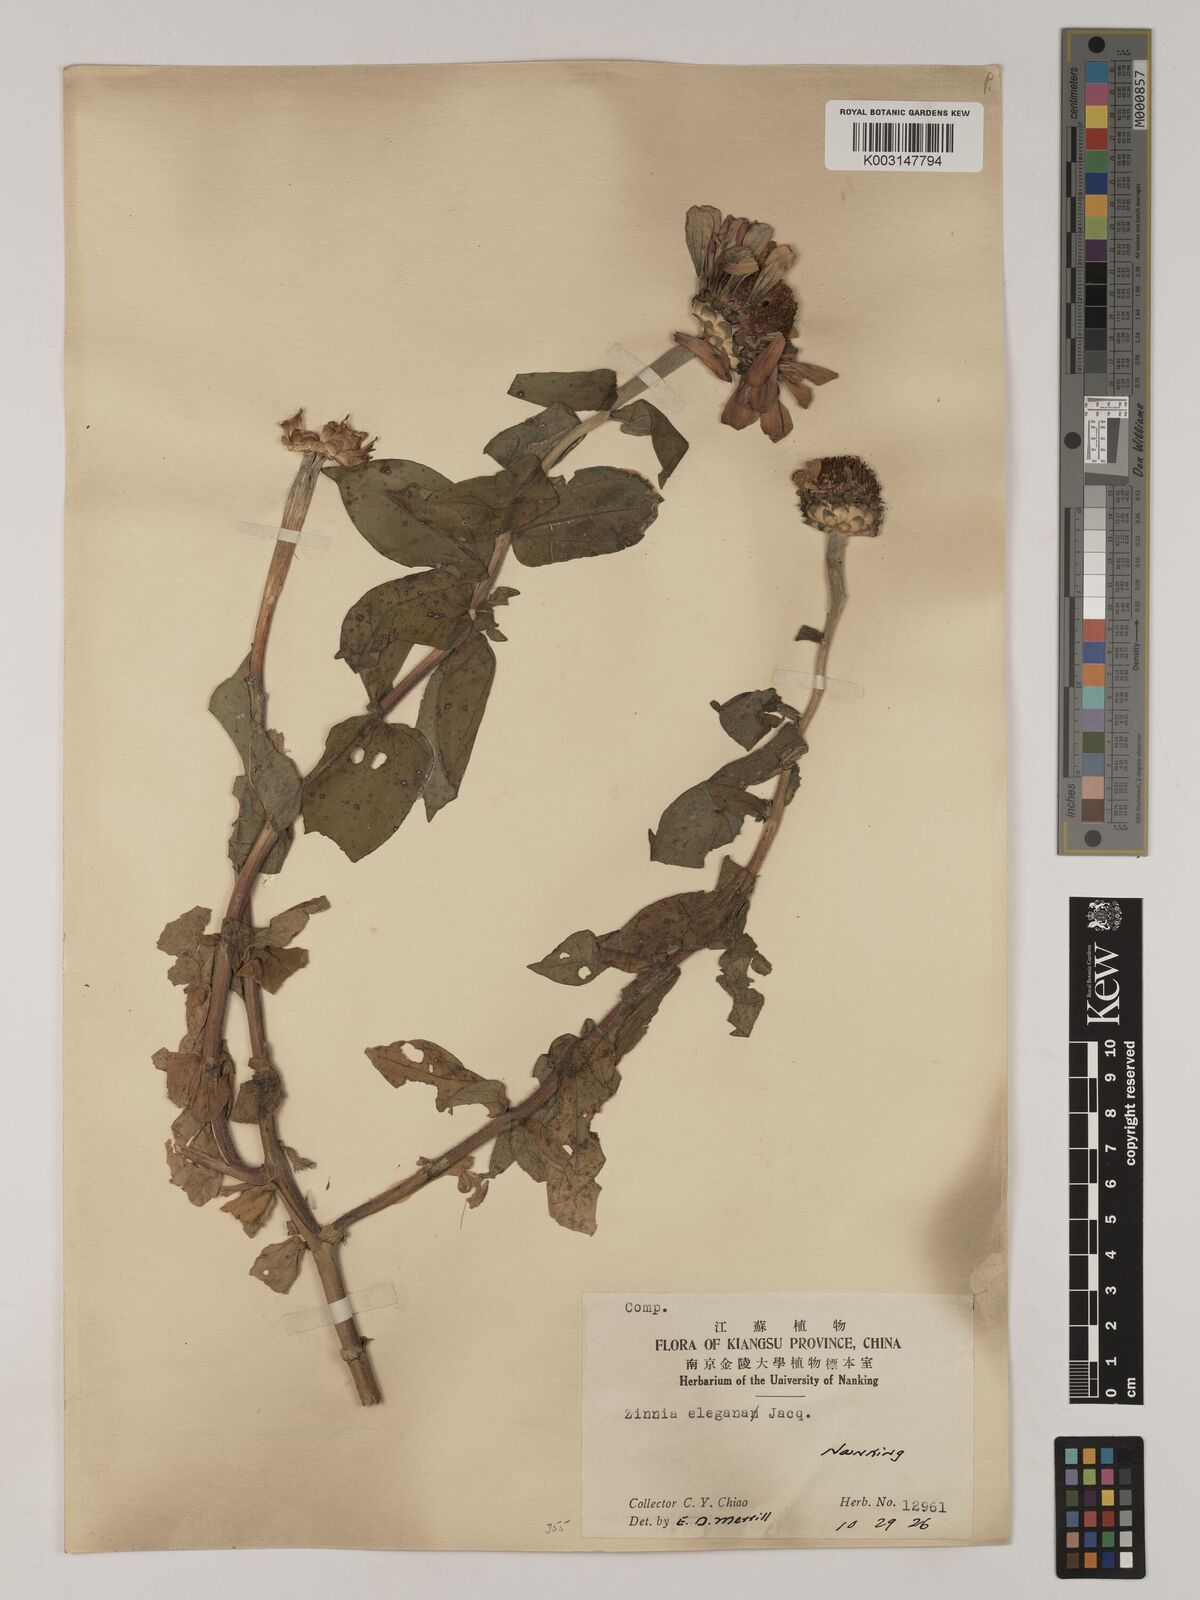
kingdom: Plantae
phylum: Tracheophyta
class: Magnoliopsida
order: Asterales
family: Asteraceae
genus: Zinnia
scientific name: Zinnia elegans
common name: Youth-and-age
